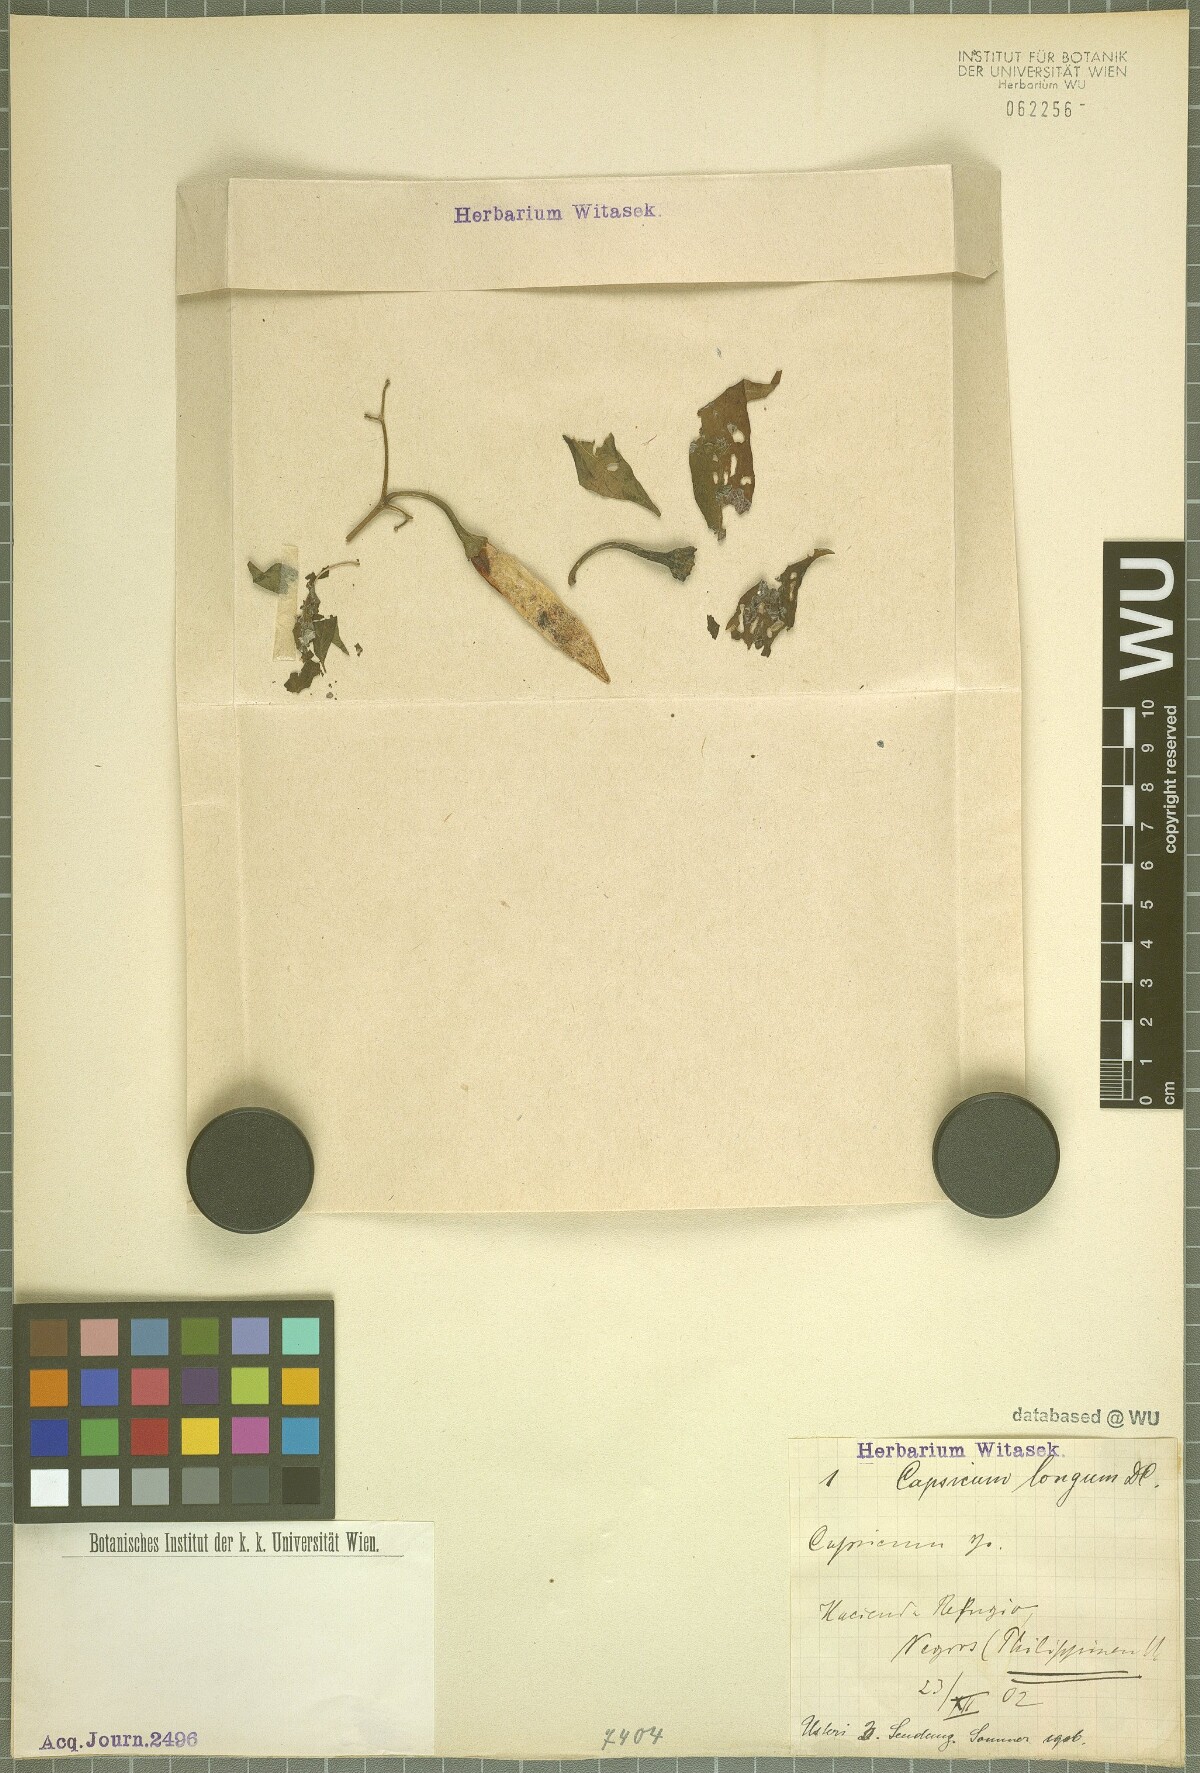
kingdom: Plantae
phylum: Tracheophyta
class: Magnoliopsida
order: Solanales
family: Solanaceae
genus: Capsicum
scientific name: Capsicum annuum
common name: Sweet pepper
